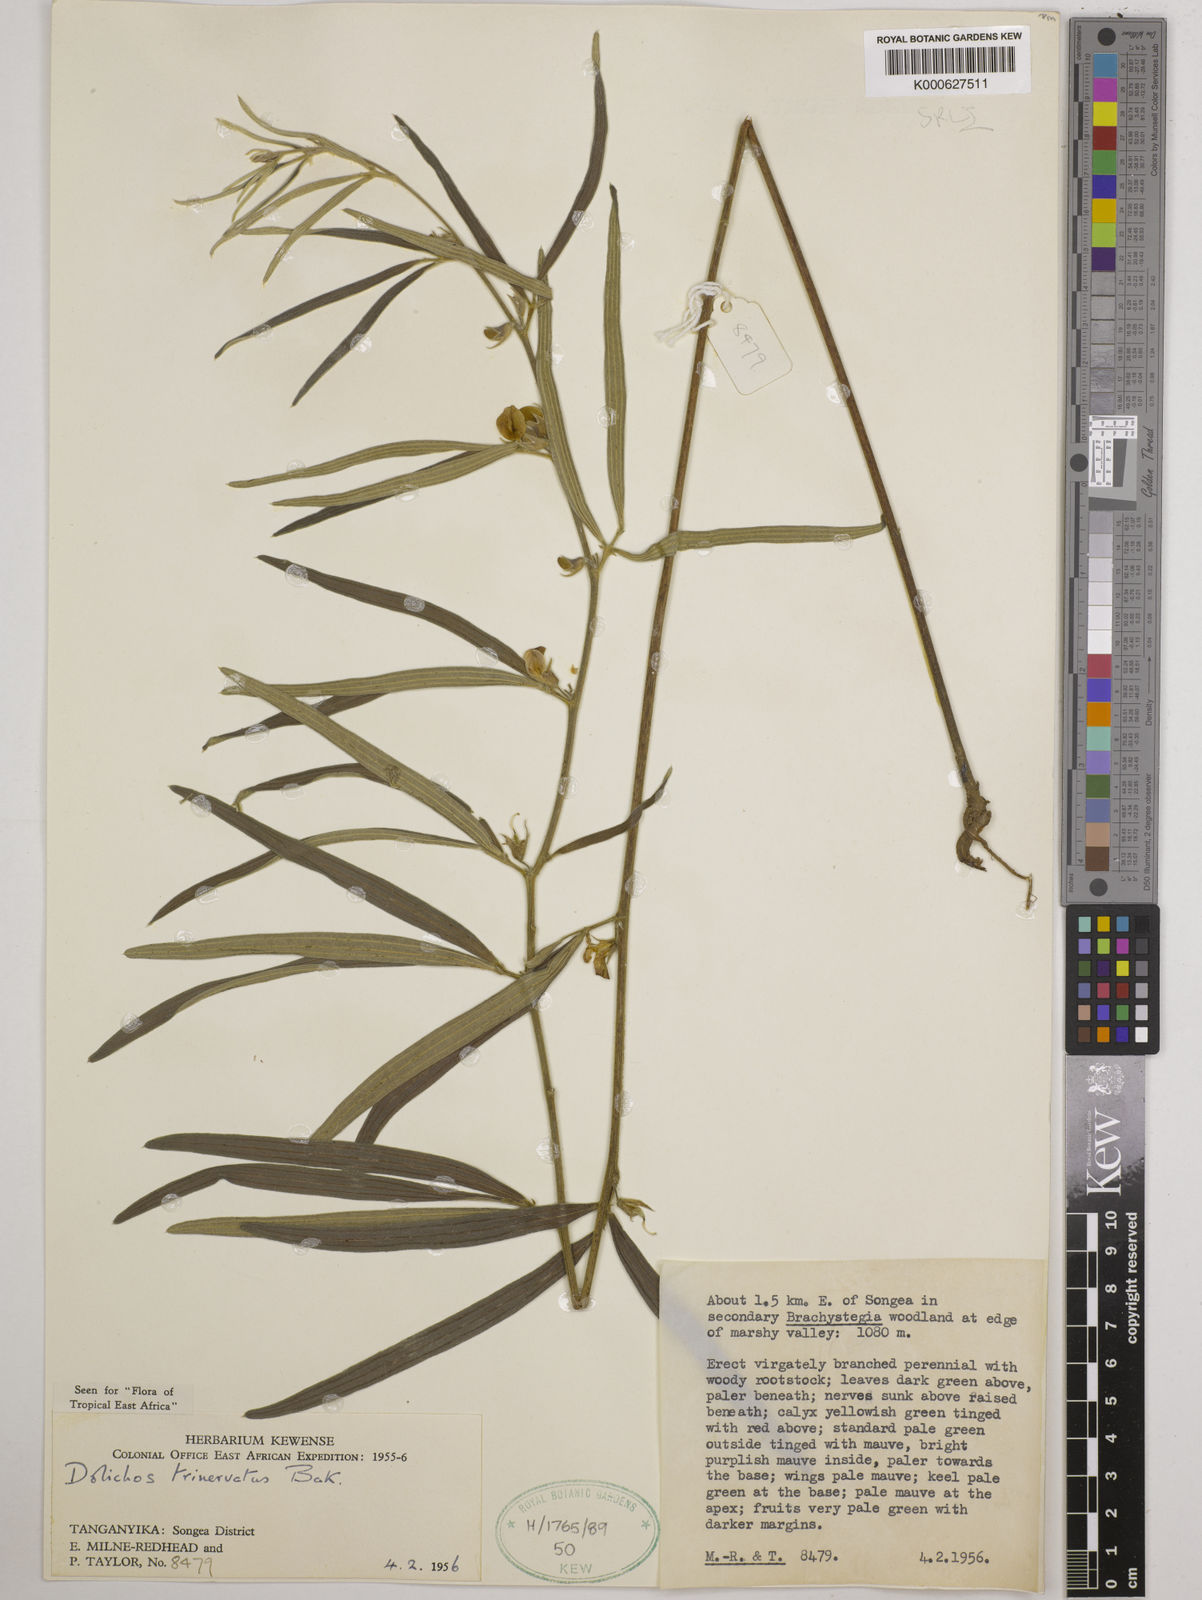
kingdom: Plantae
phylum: Tracheophyta
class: Magnoliopsida
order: Fabales
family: Fabaceae
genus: Dolichos
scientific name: Dolichos trinervatus
